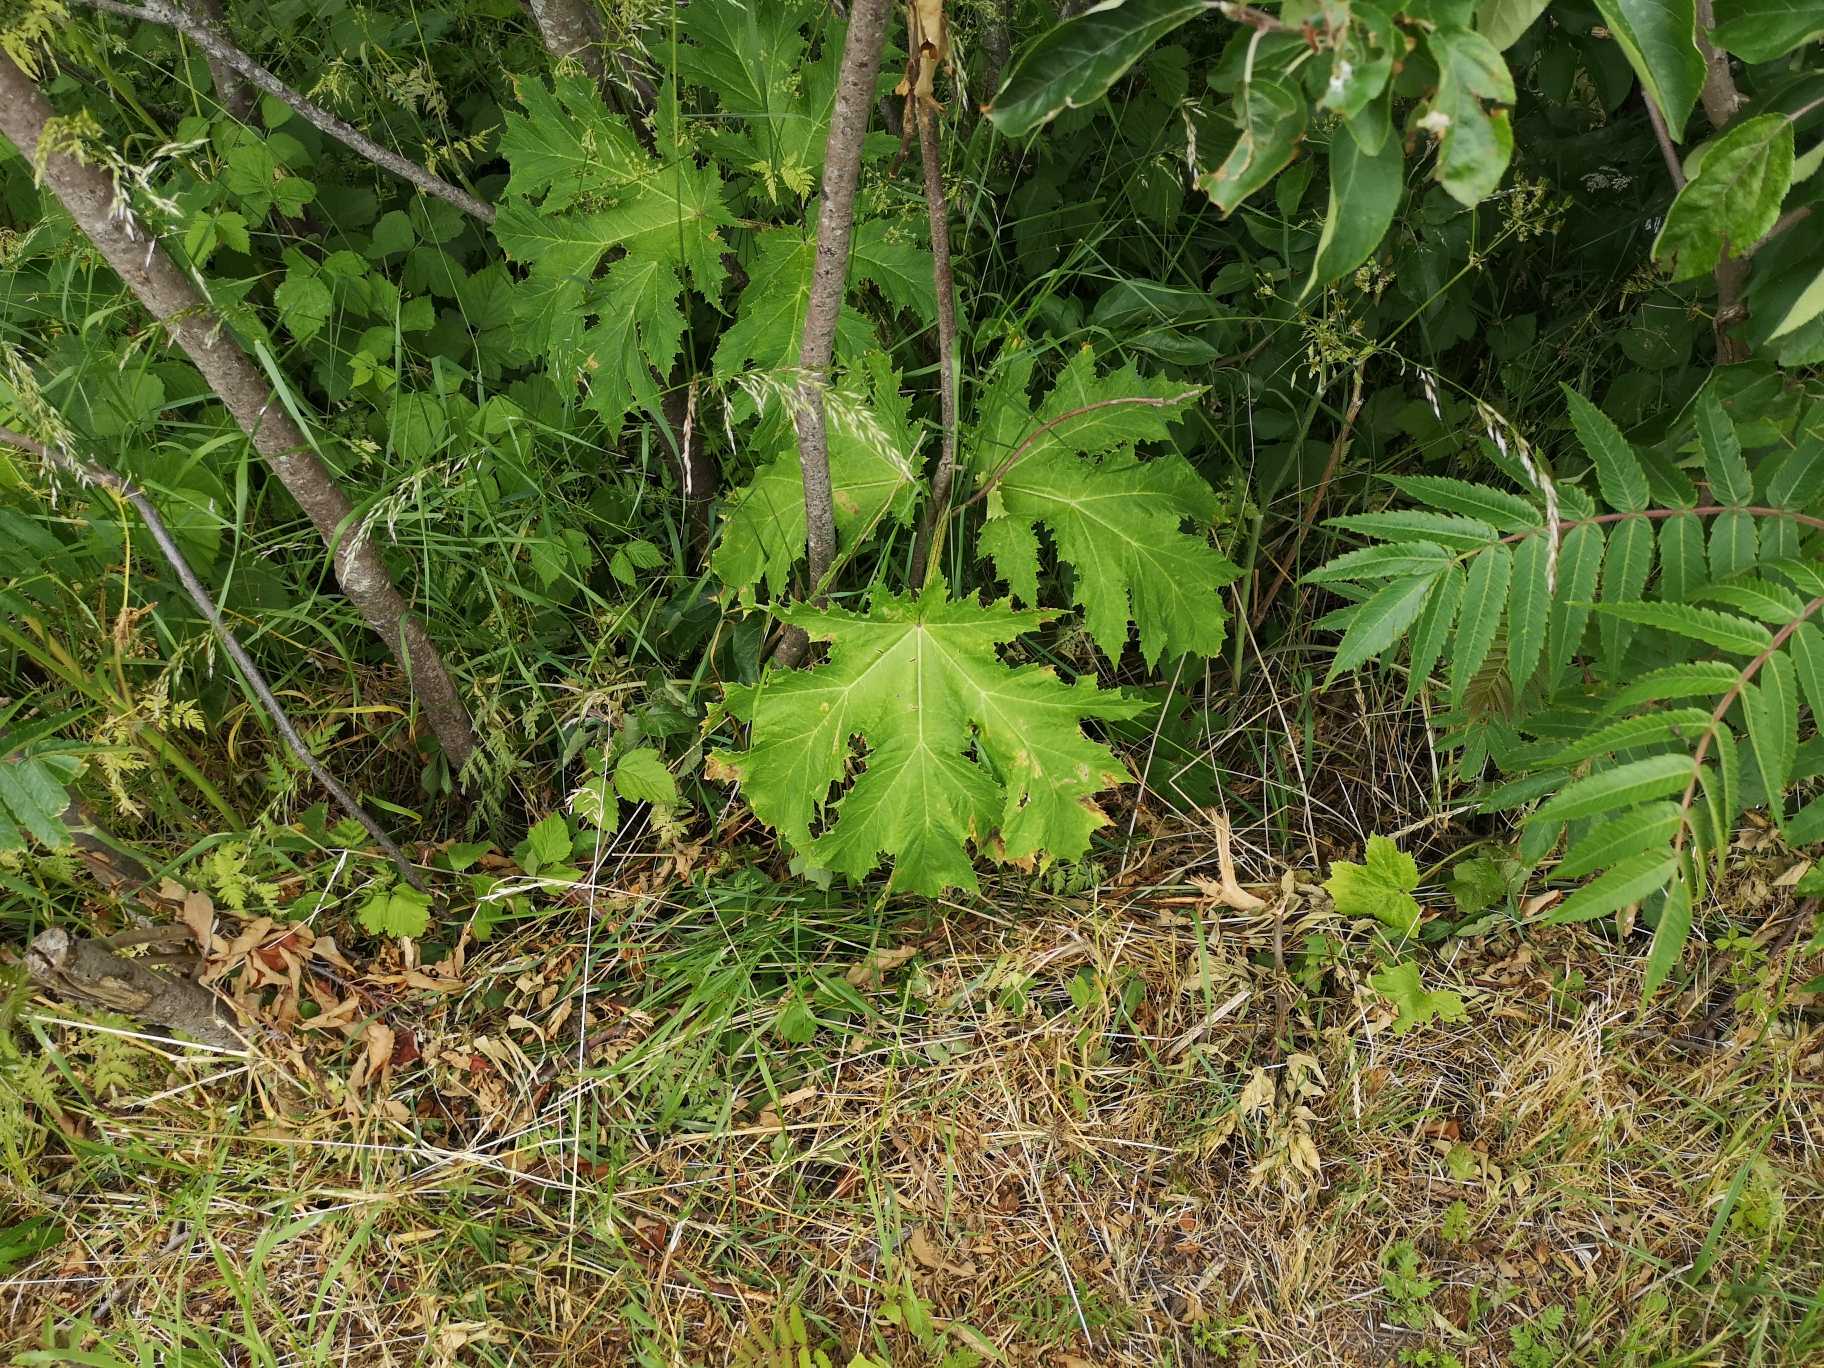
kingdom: Plantae
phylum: Tracheophyta
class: Magnoliopsida
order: Apiales
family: Apiaceae
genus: Heracleum
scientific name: Heracleum mantegazzianum
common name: Kæmpe-bjørneklo
